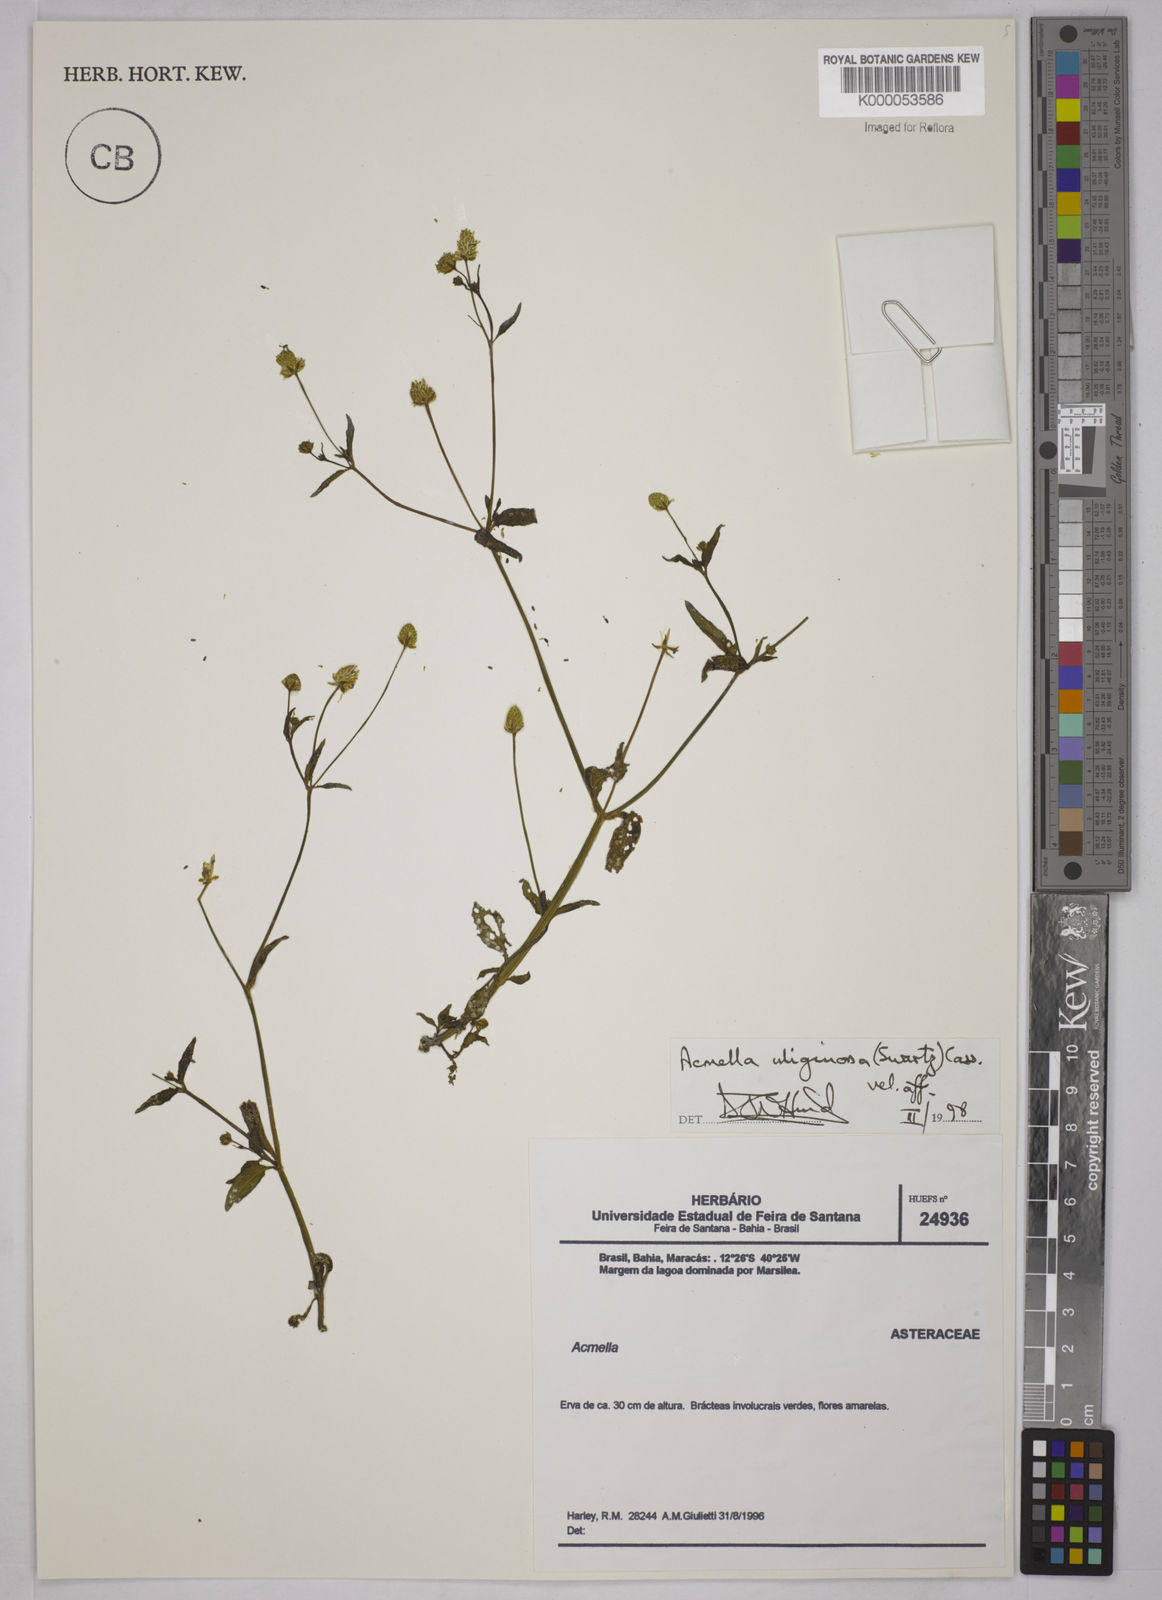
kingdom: Plantae
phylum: Tracheophyta
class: Magnoliopsida
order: Asterales
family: Asteraceae
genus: Acmella
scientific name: Acmella uliginosa
